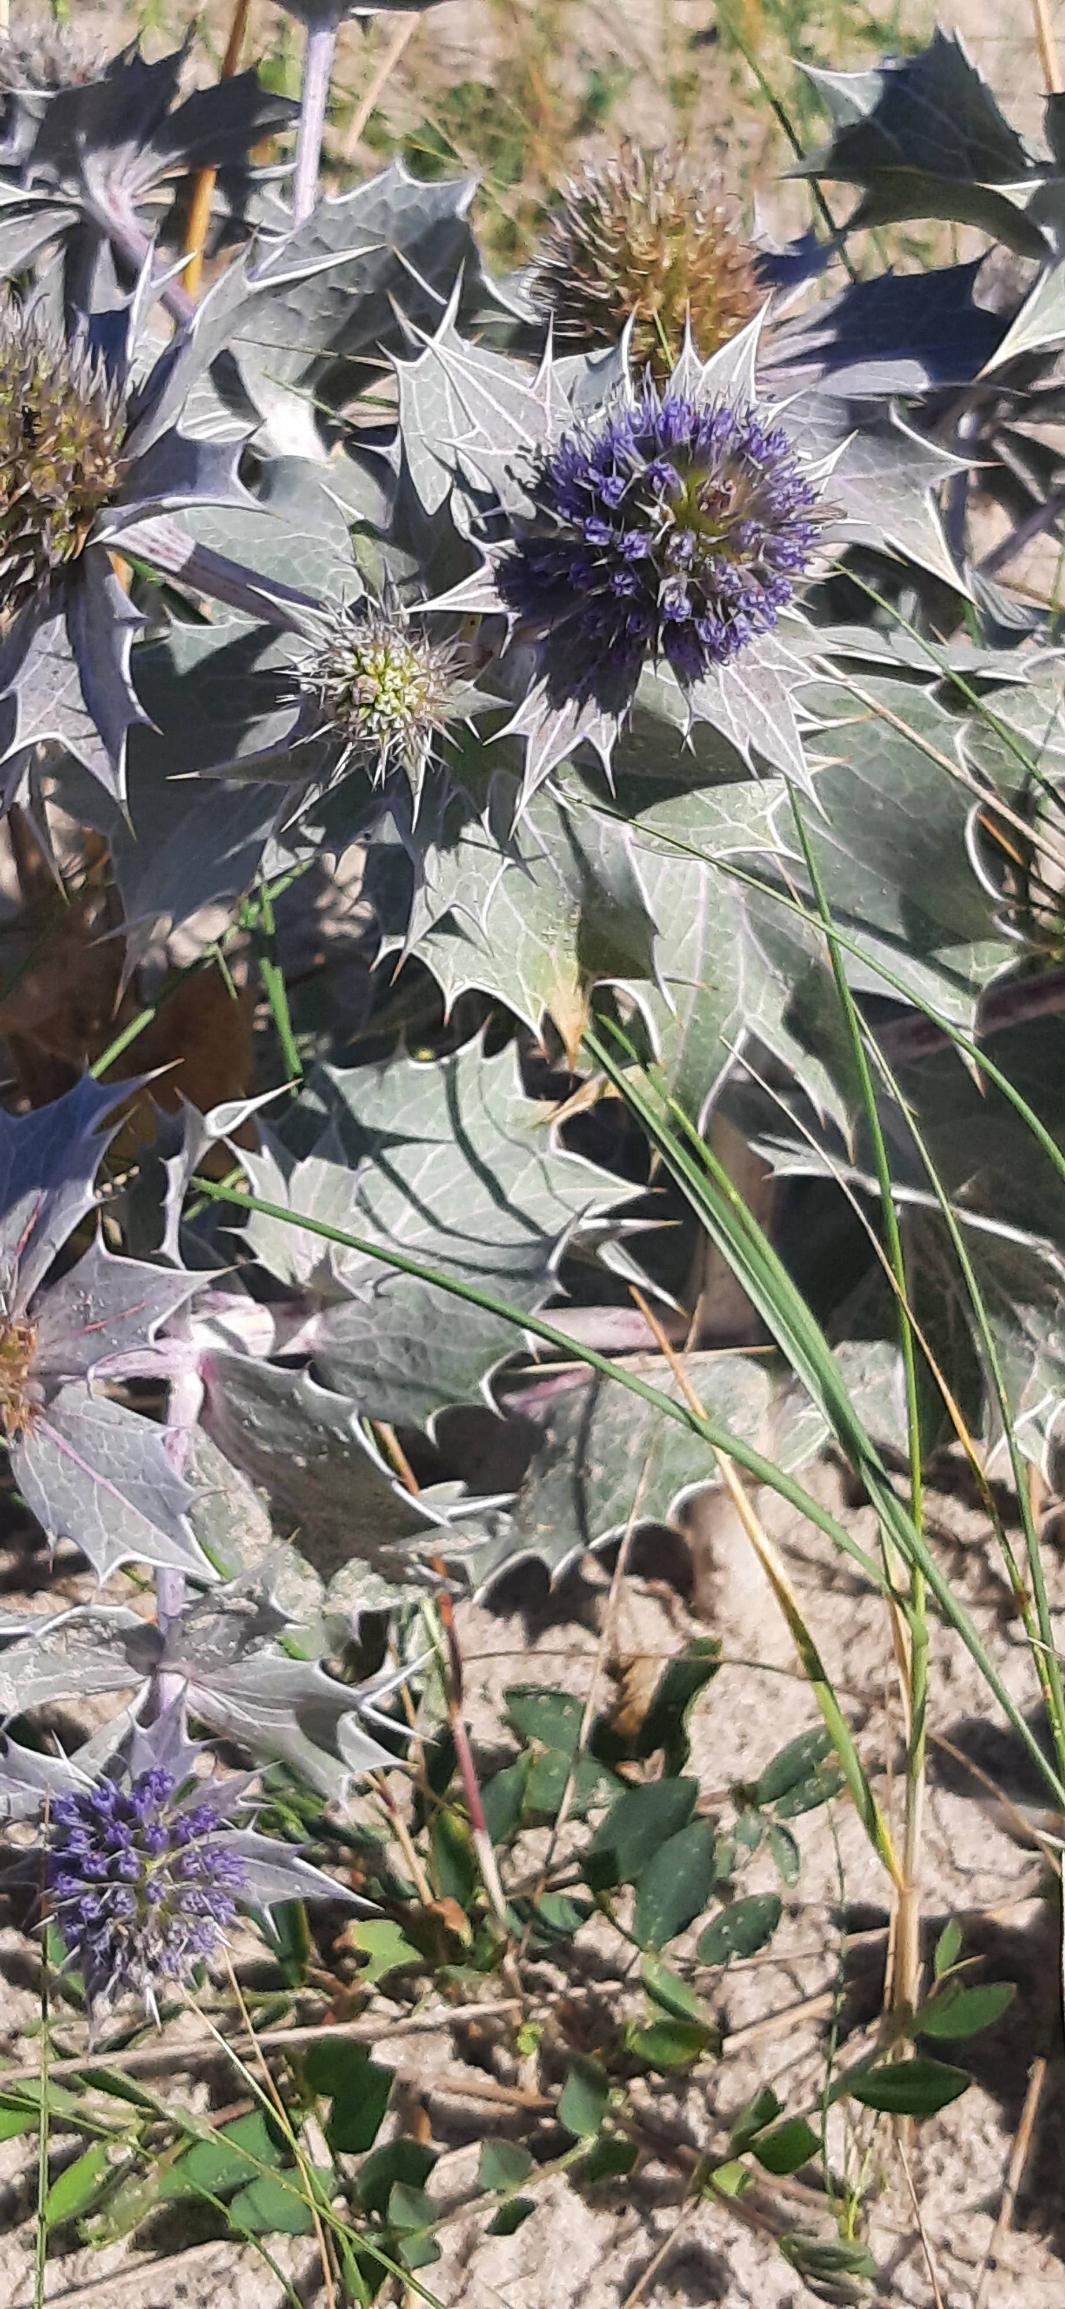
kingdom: Plantae
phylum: Tracheophyta
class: Magnoliopsida
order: Apiales
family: Apiaceae
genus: Eryngium
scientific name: Eryngium maritimum
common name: Strand-mandstro
